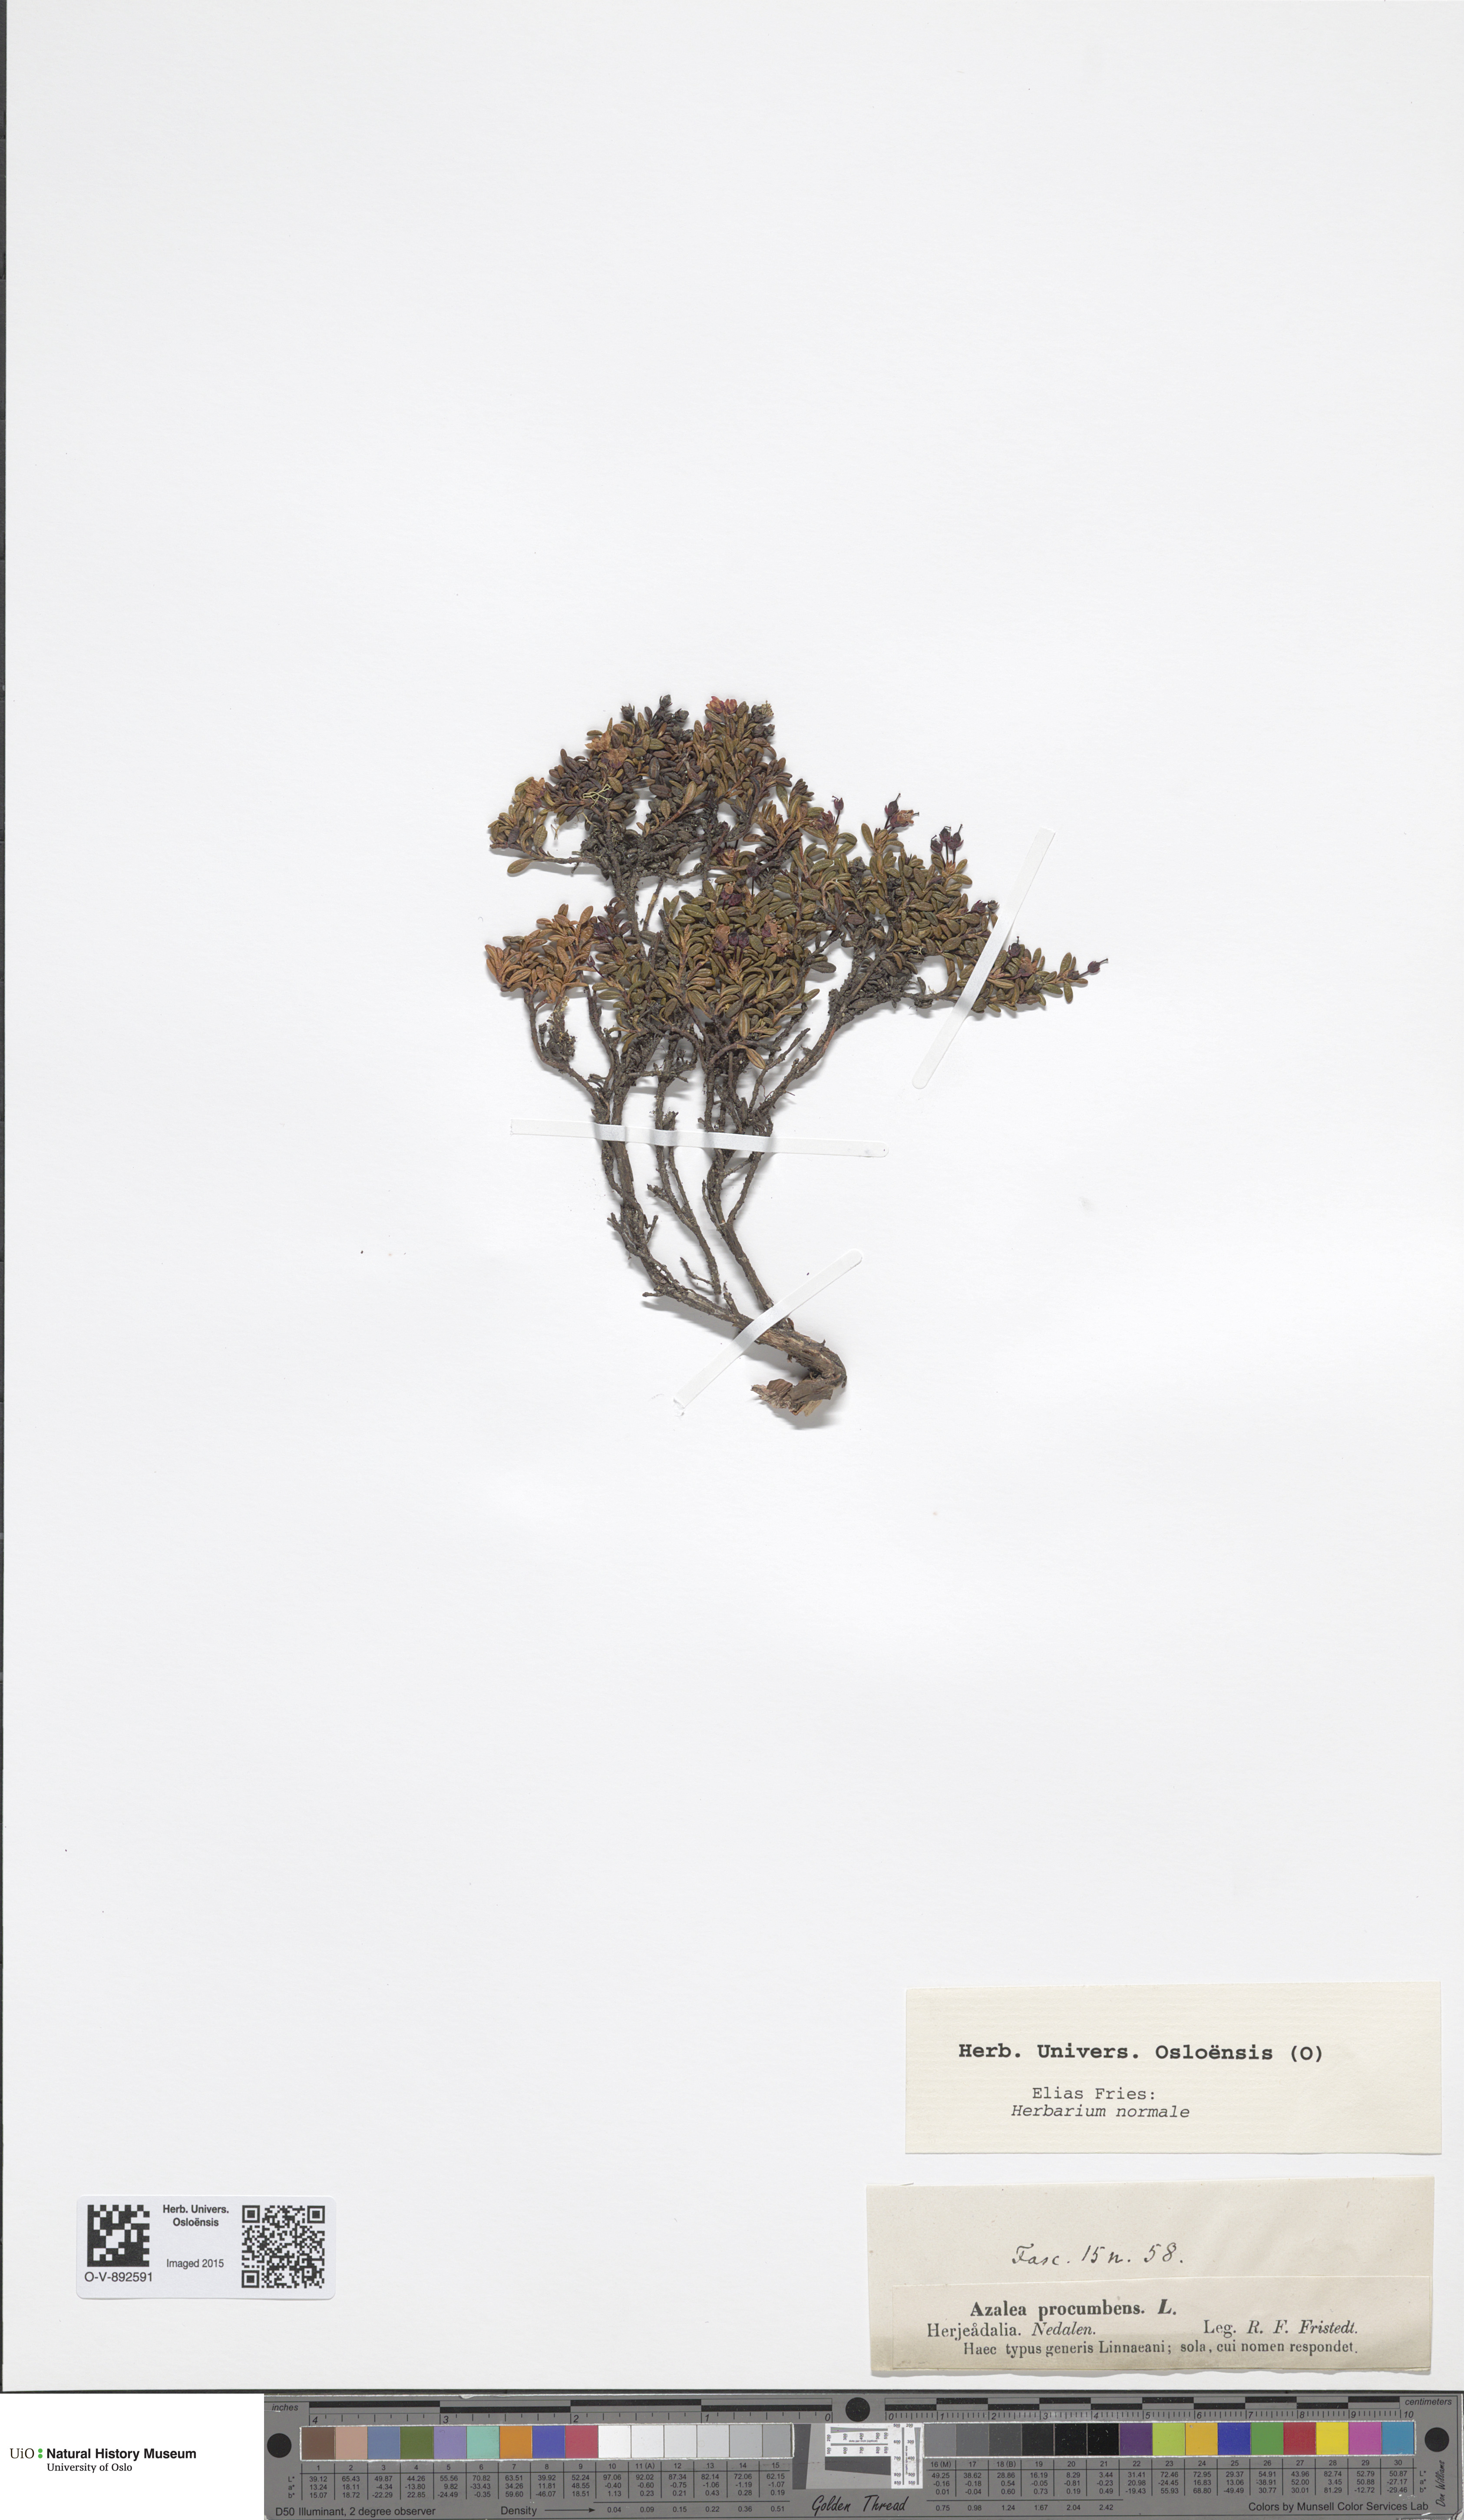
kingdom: Plantae
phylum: Tracheophyta
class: Magnoliopsida
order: Ericales
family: Ericaceae
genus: Kalmia
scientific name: Kalmia procumbens
